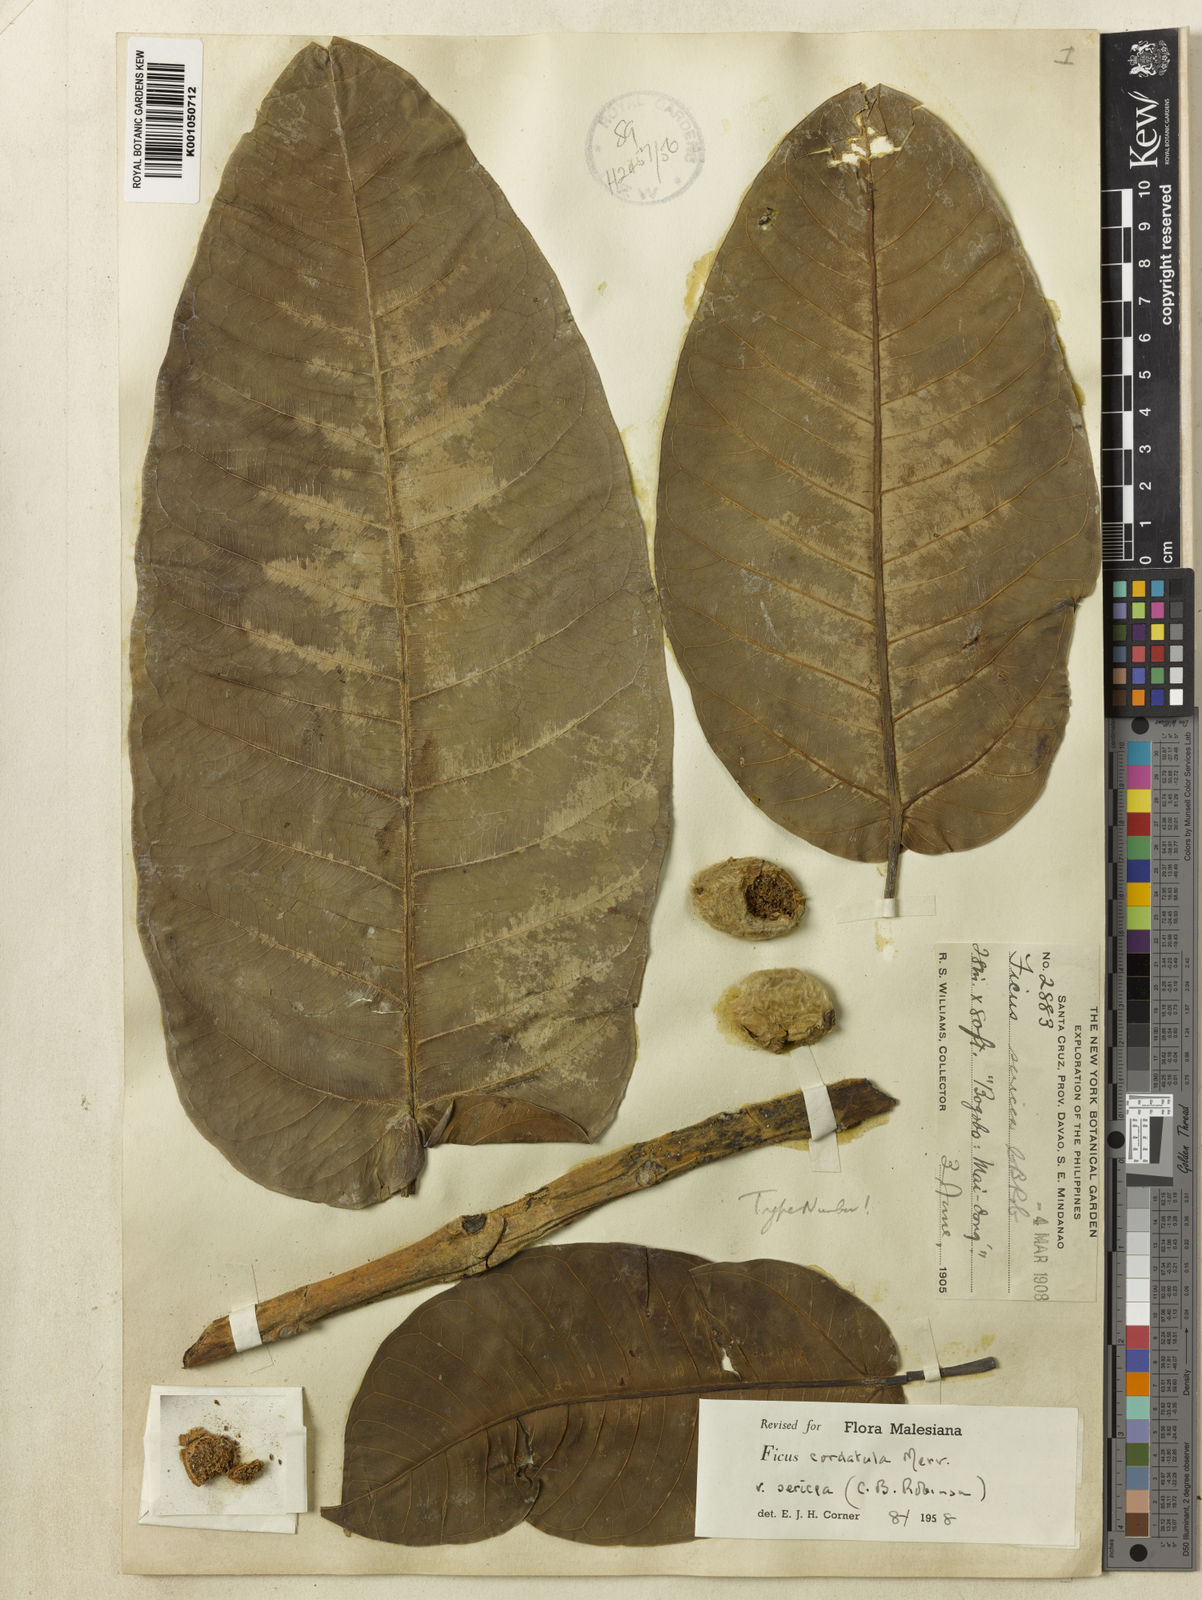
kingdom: Plantae
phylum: Tracheophyta
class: Magnoliopsida
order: Rosales
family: Moraceae
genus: Ficus
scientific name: Ficus cordatula
